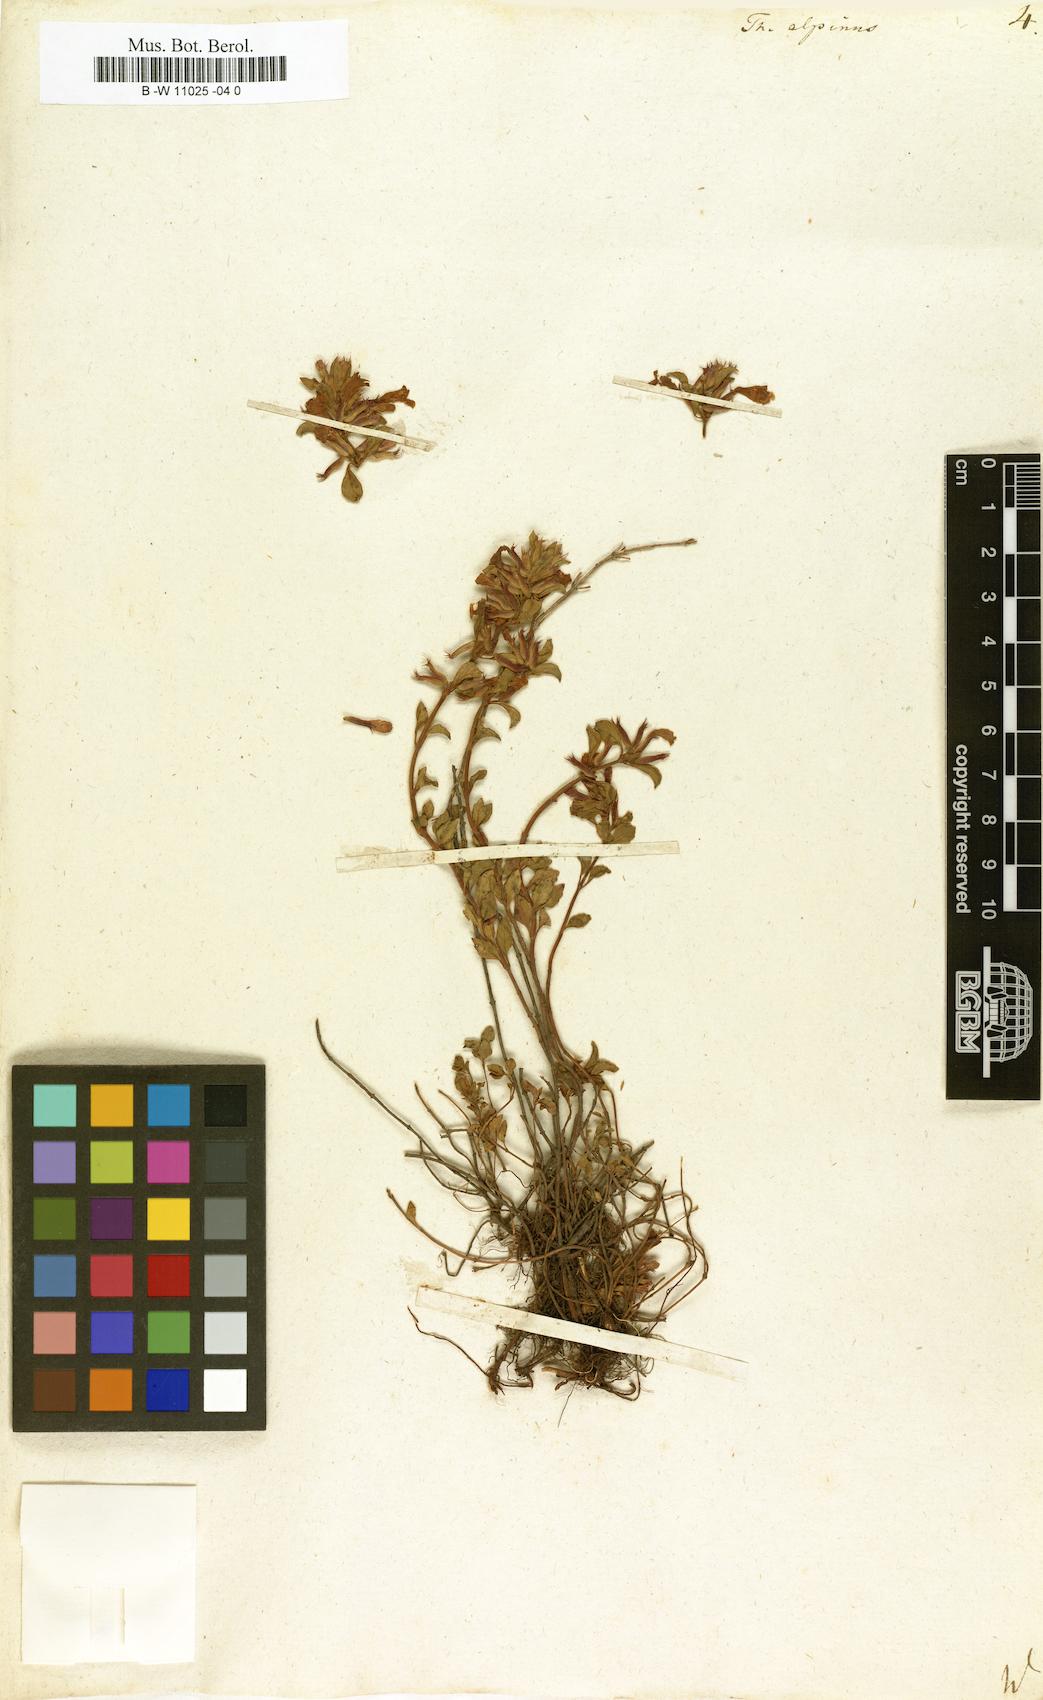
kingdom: Plantae
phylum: Tracheophyta
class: Magnoliopsida
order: Lamiales
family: Lamiaceae
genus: Thymus
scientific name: Thymus alpinus
